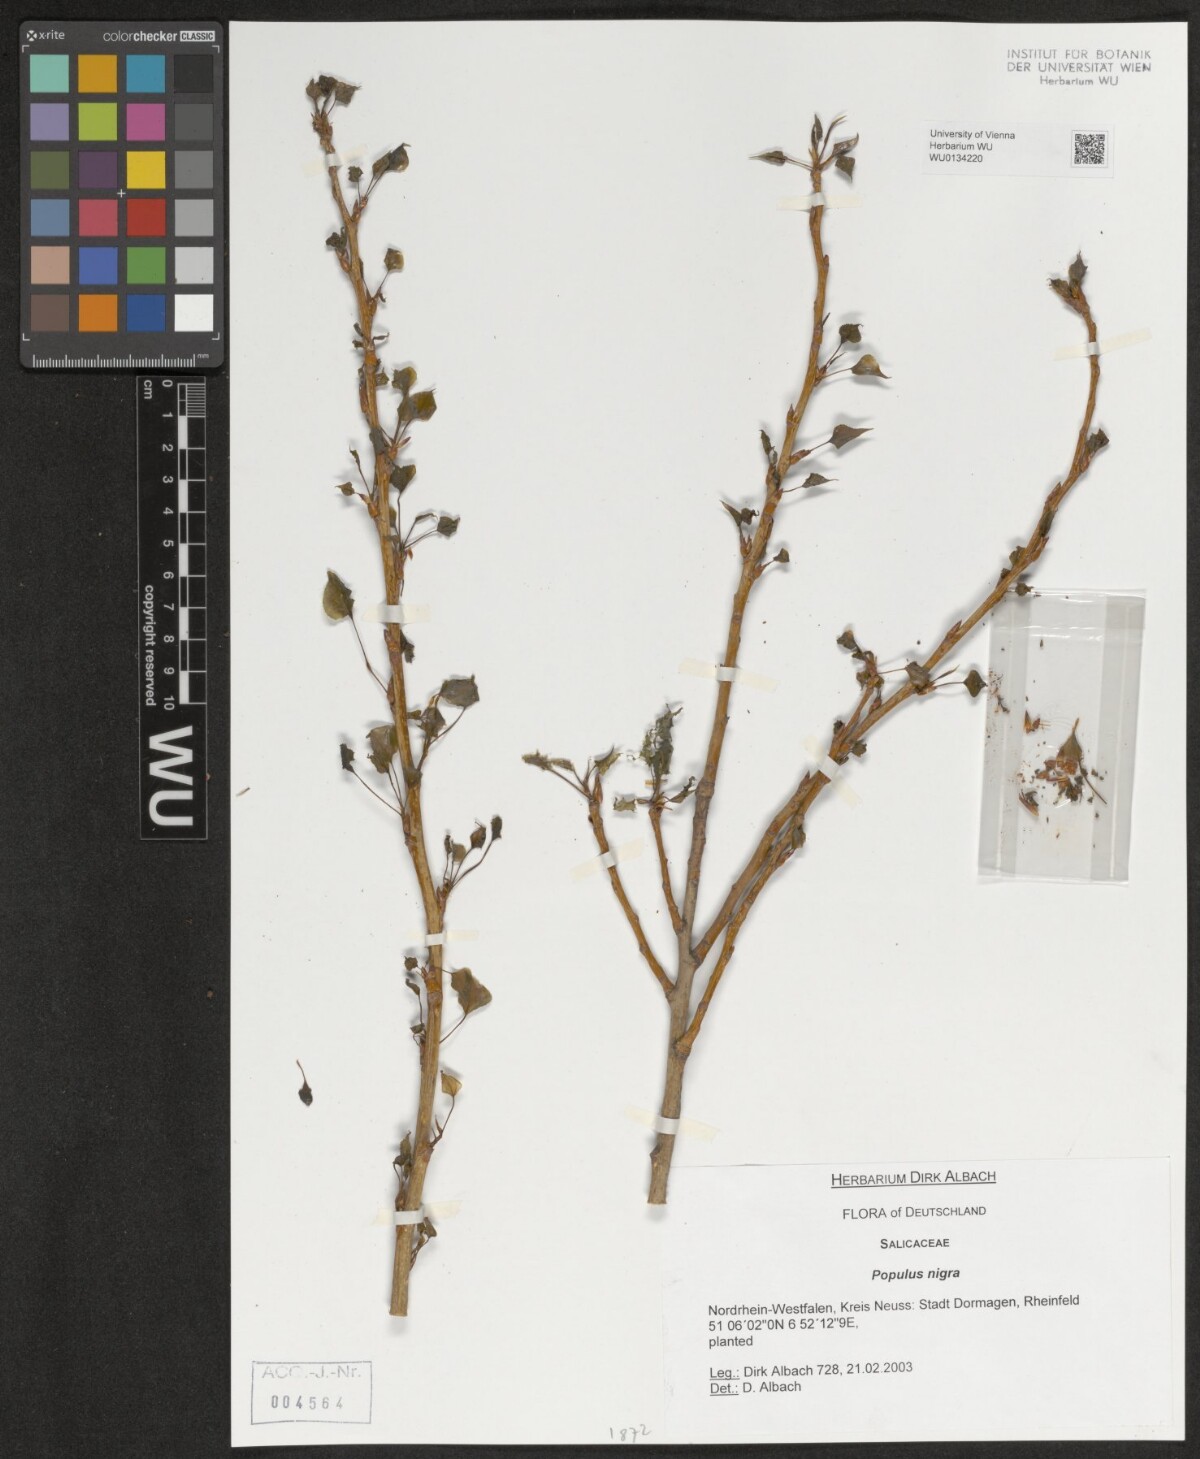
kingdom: Plantae
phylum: Tracheophyta
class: Magnoliopsida
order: Malpighiales
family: Salicaceae
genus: Populus
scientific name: Populus nigra
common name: Black poplar
